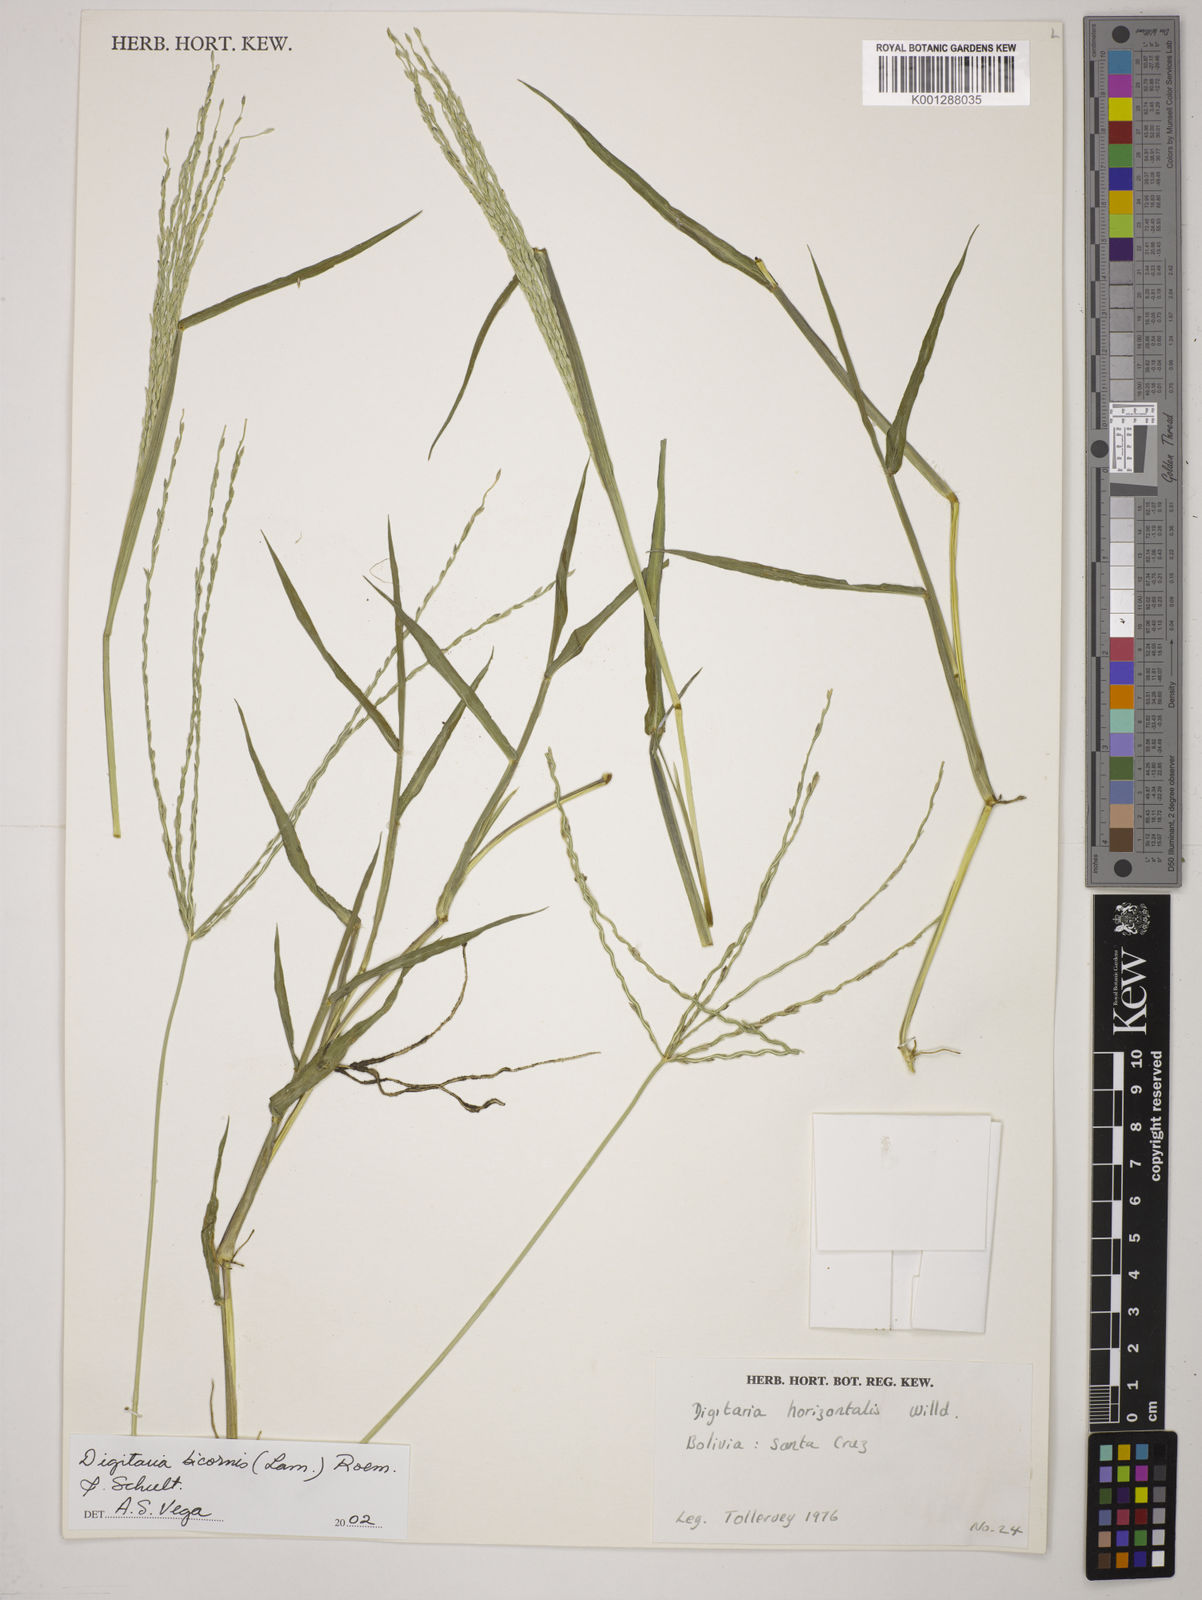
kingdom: Plantae
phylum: Tracheophyta
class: Liliopsida
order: Poales
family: Poaceae
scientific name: Poaceae
